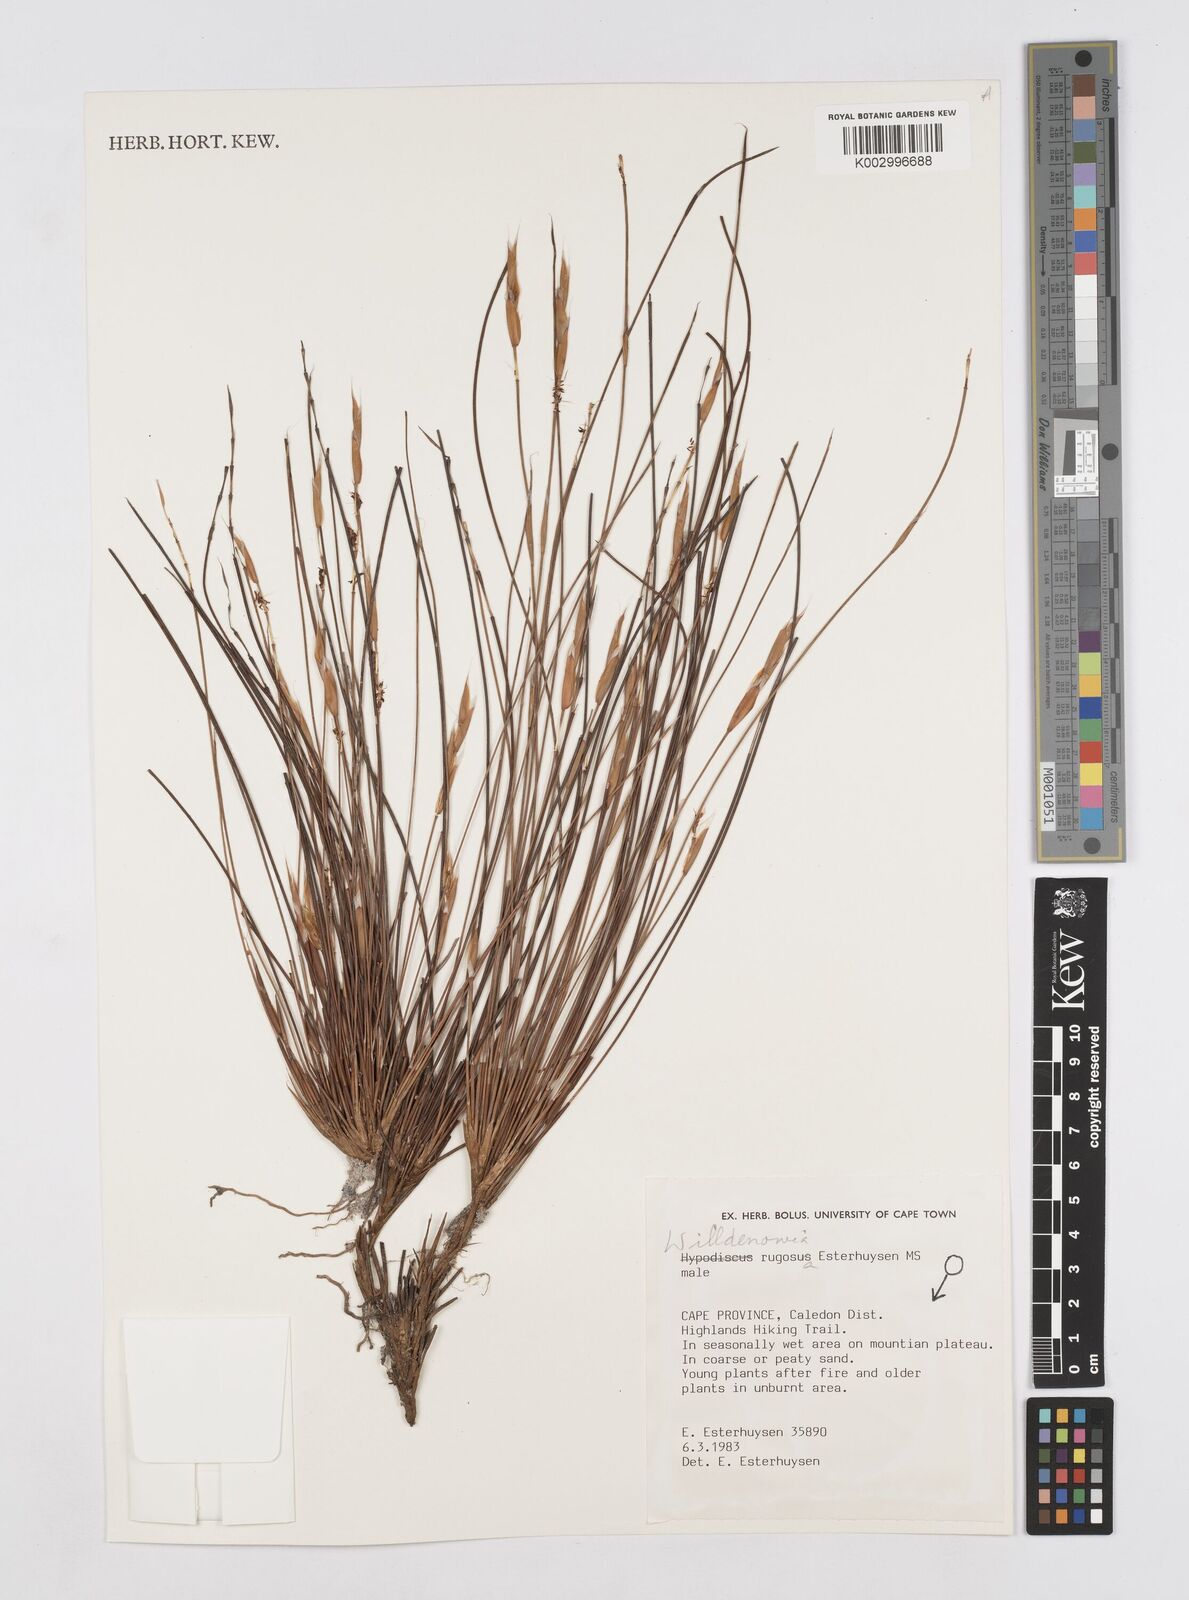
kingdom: Plantae
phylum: Tracheophyta
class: Liliopsida
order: Poales
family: Restionaceae
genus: Willdenowia
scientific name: Willdenowia glomerata
